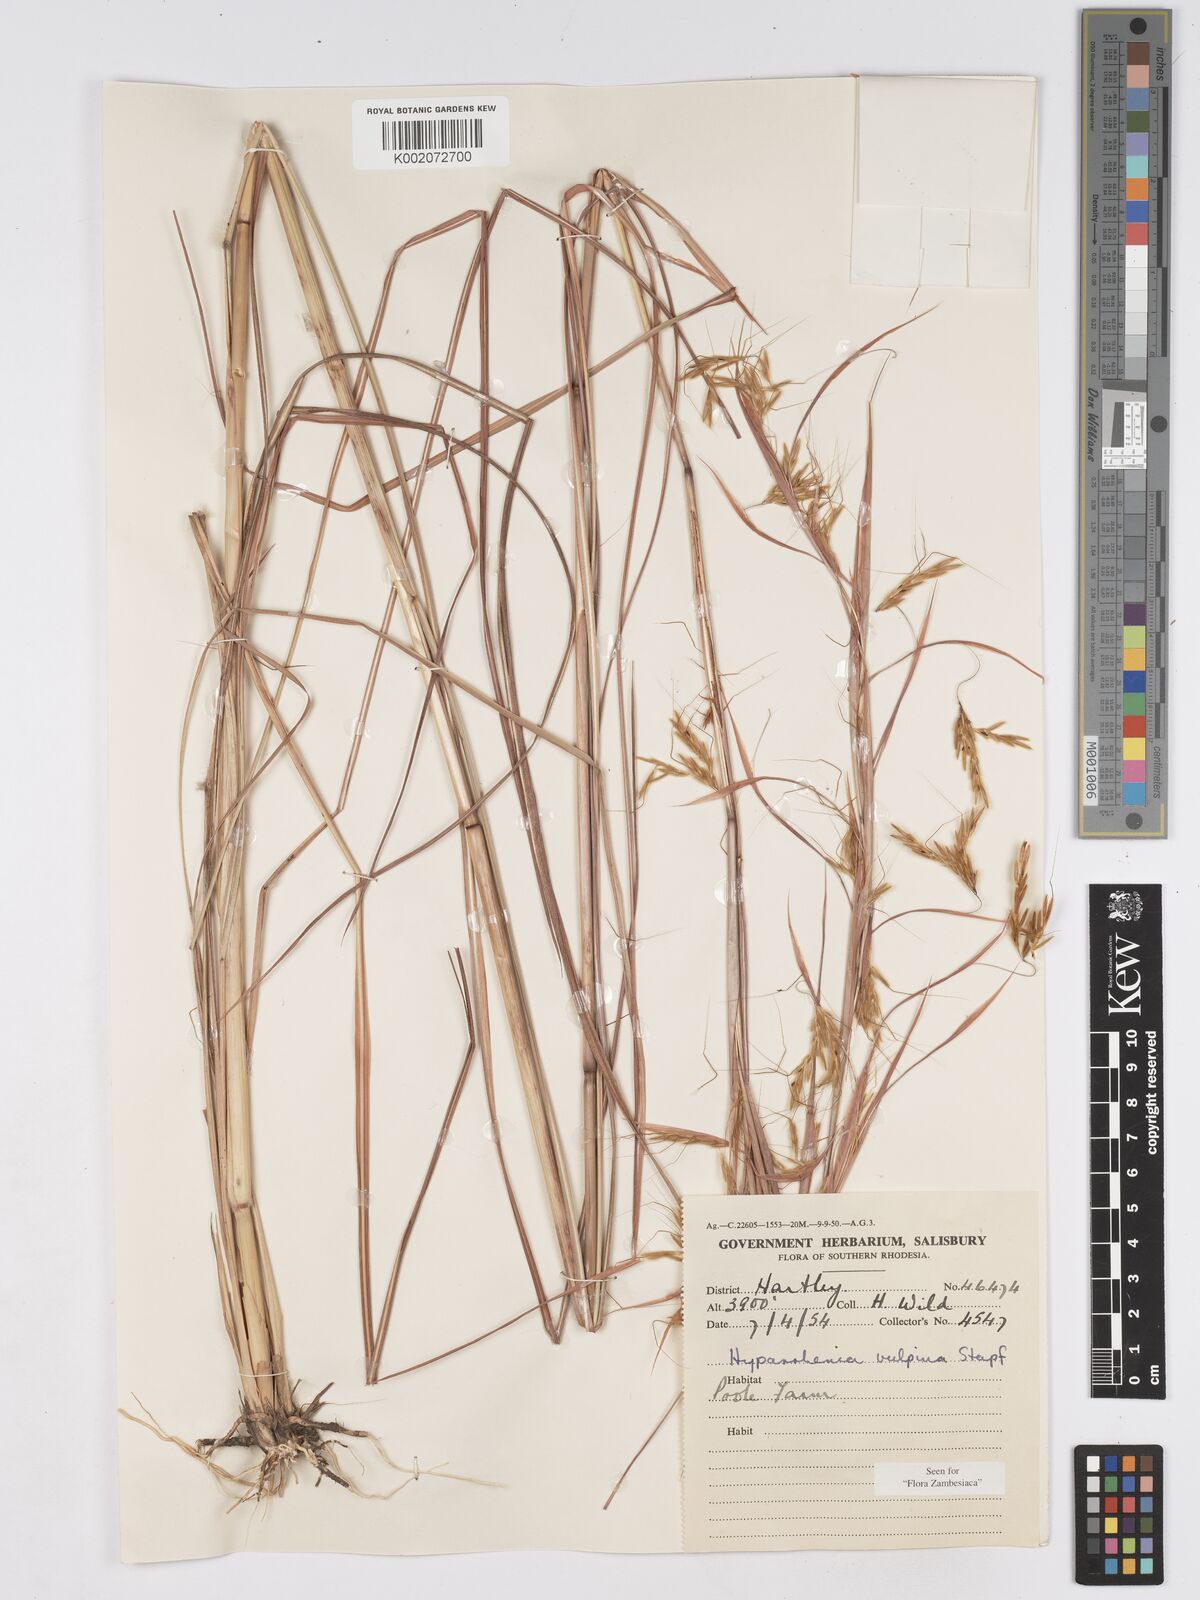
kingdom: Plantae
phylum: Tracheophyta
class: Liliopsida
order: Poales
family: Poaceae
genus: Hyparrhenia
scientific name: Hyparrhenia nyassae
